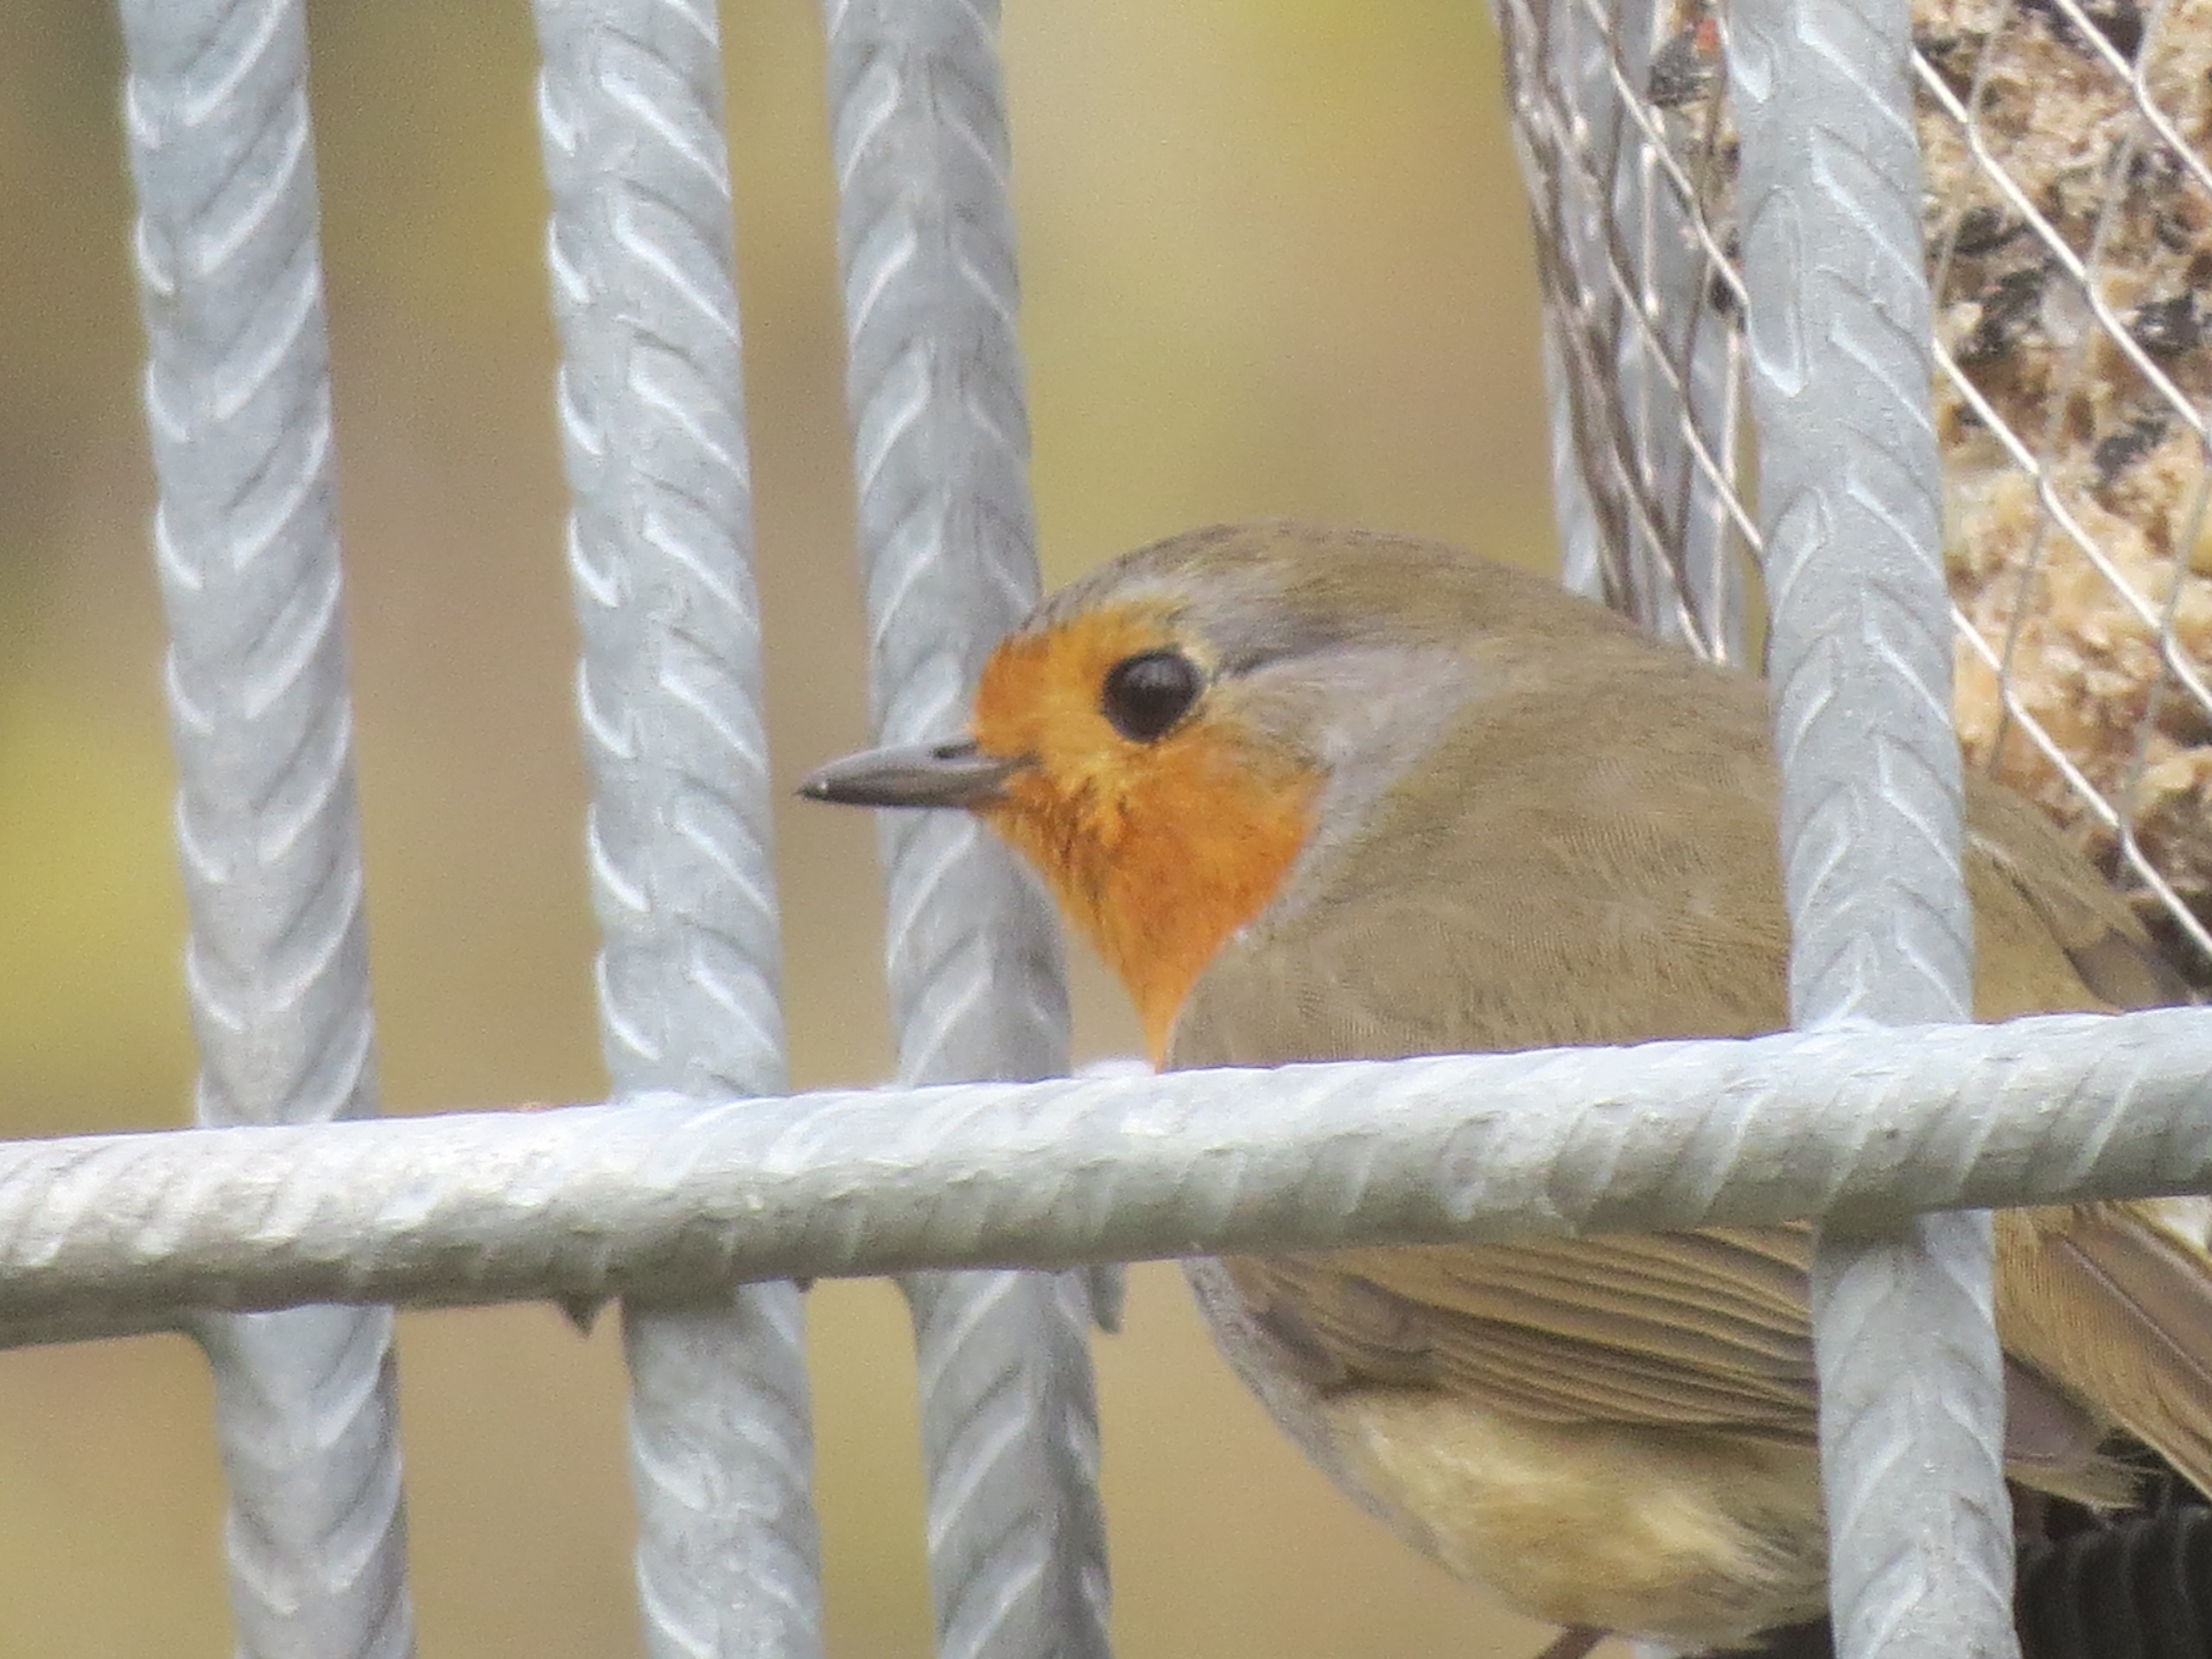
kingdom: Animalia
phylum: Chordata
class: Aves
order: Passeriformes
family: Muscicapidae
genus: Erithacus
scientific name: Erithacus rubecula
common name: Rødhals/rødkælk
